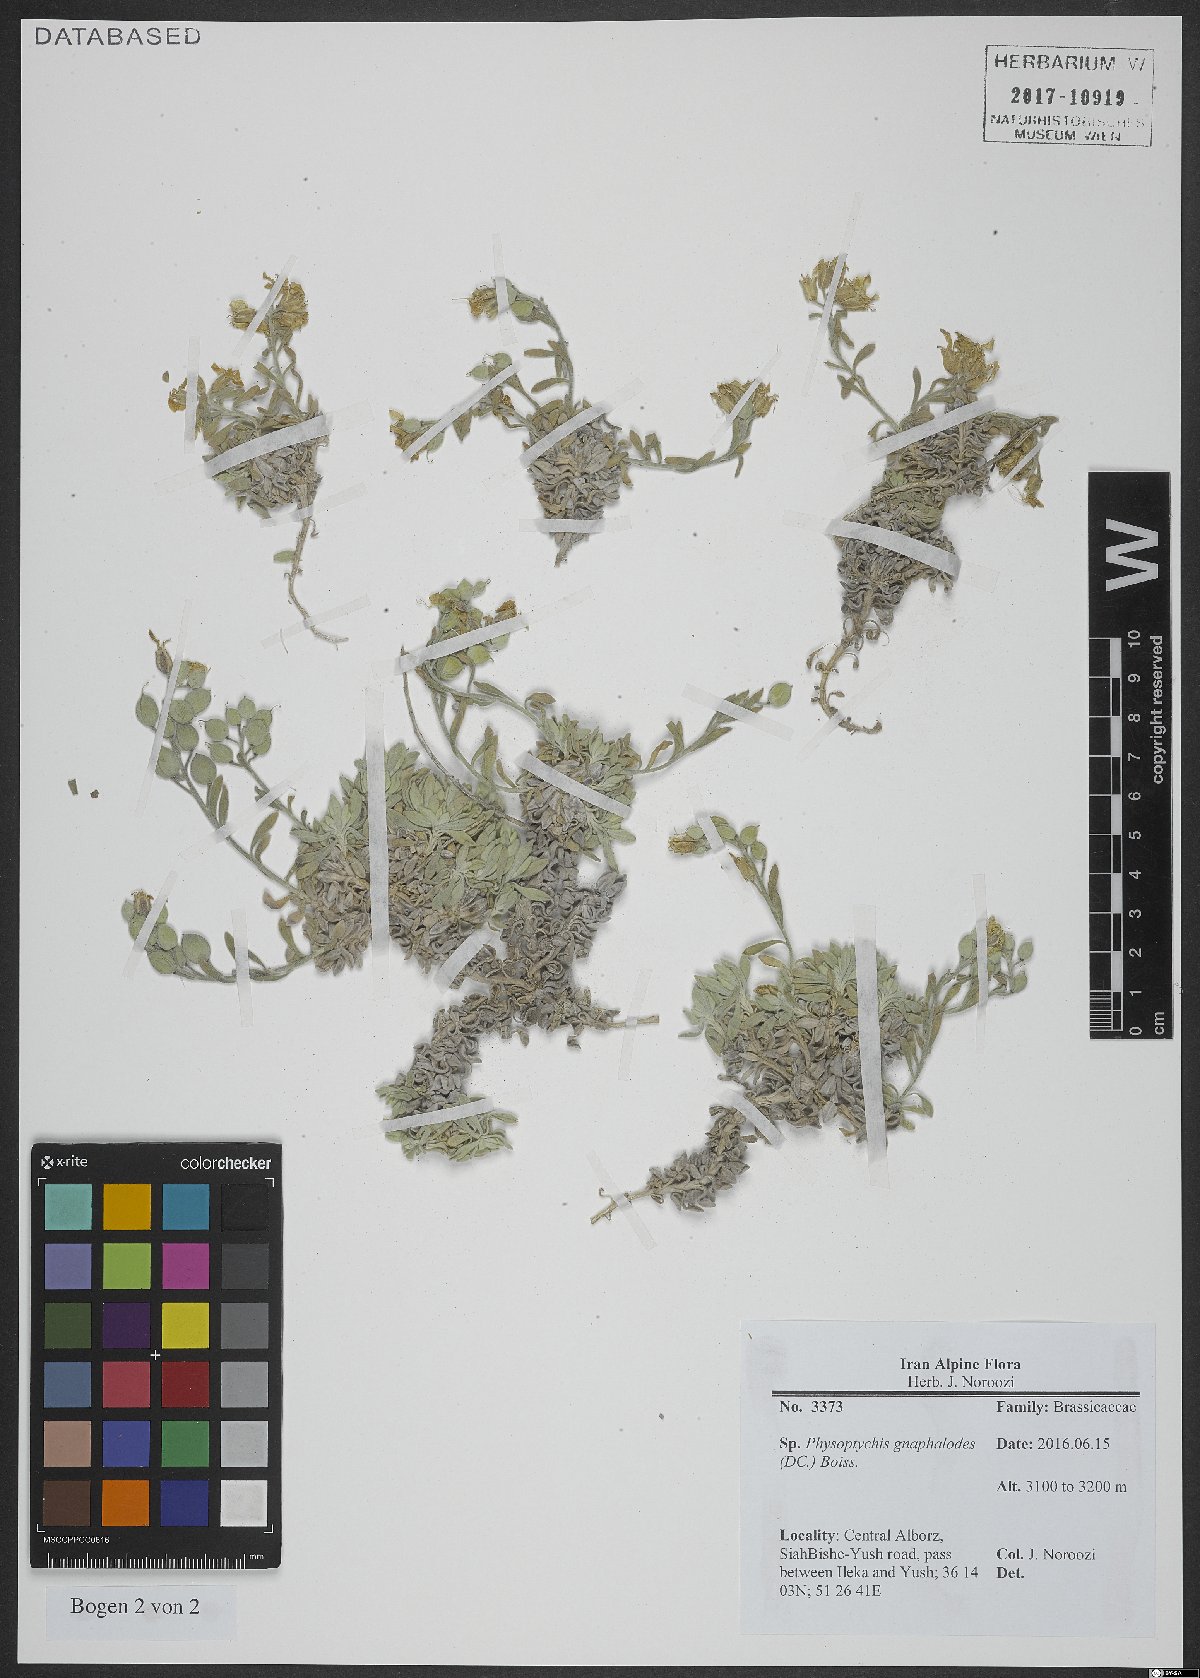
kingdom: Plantae
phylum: Tracheophyta
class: Magnoliopsida
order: Brassicales
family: Brassicaceae
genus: Physoptychis
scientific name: Physoptychis caspica
